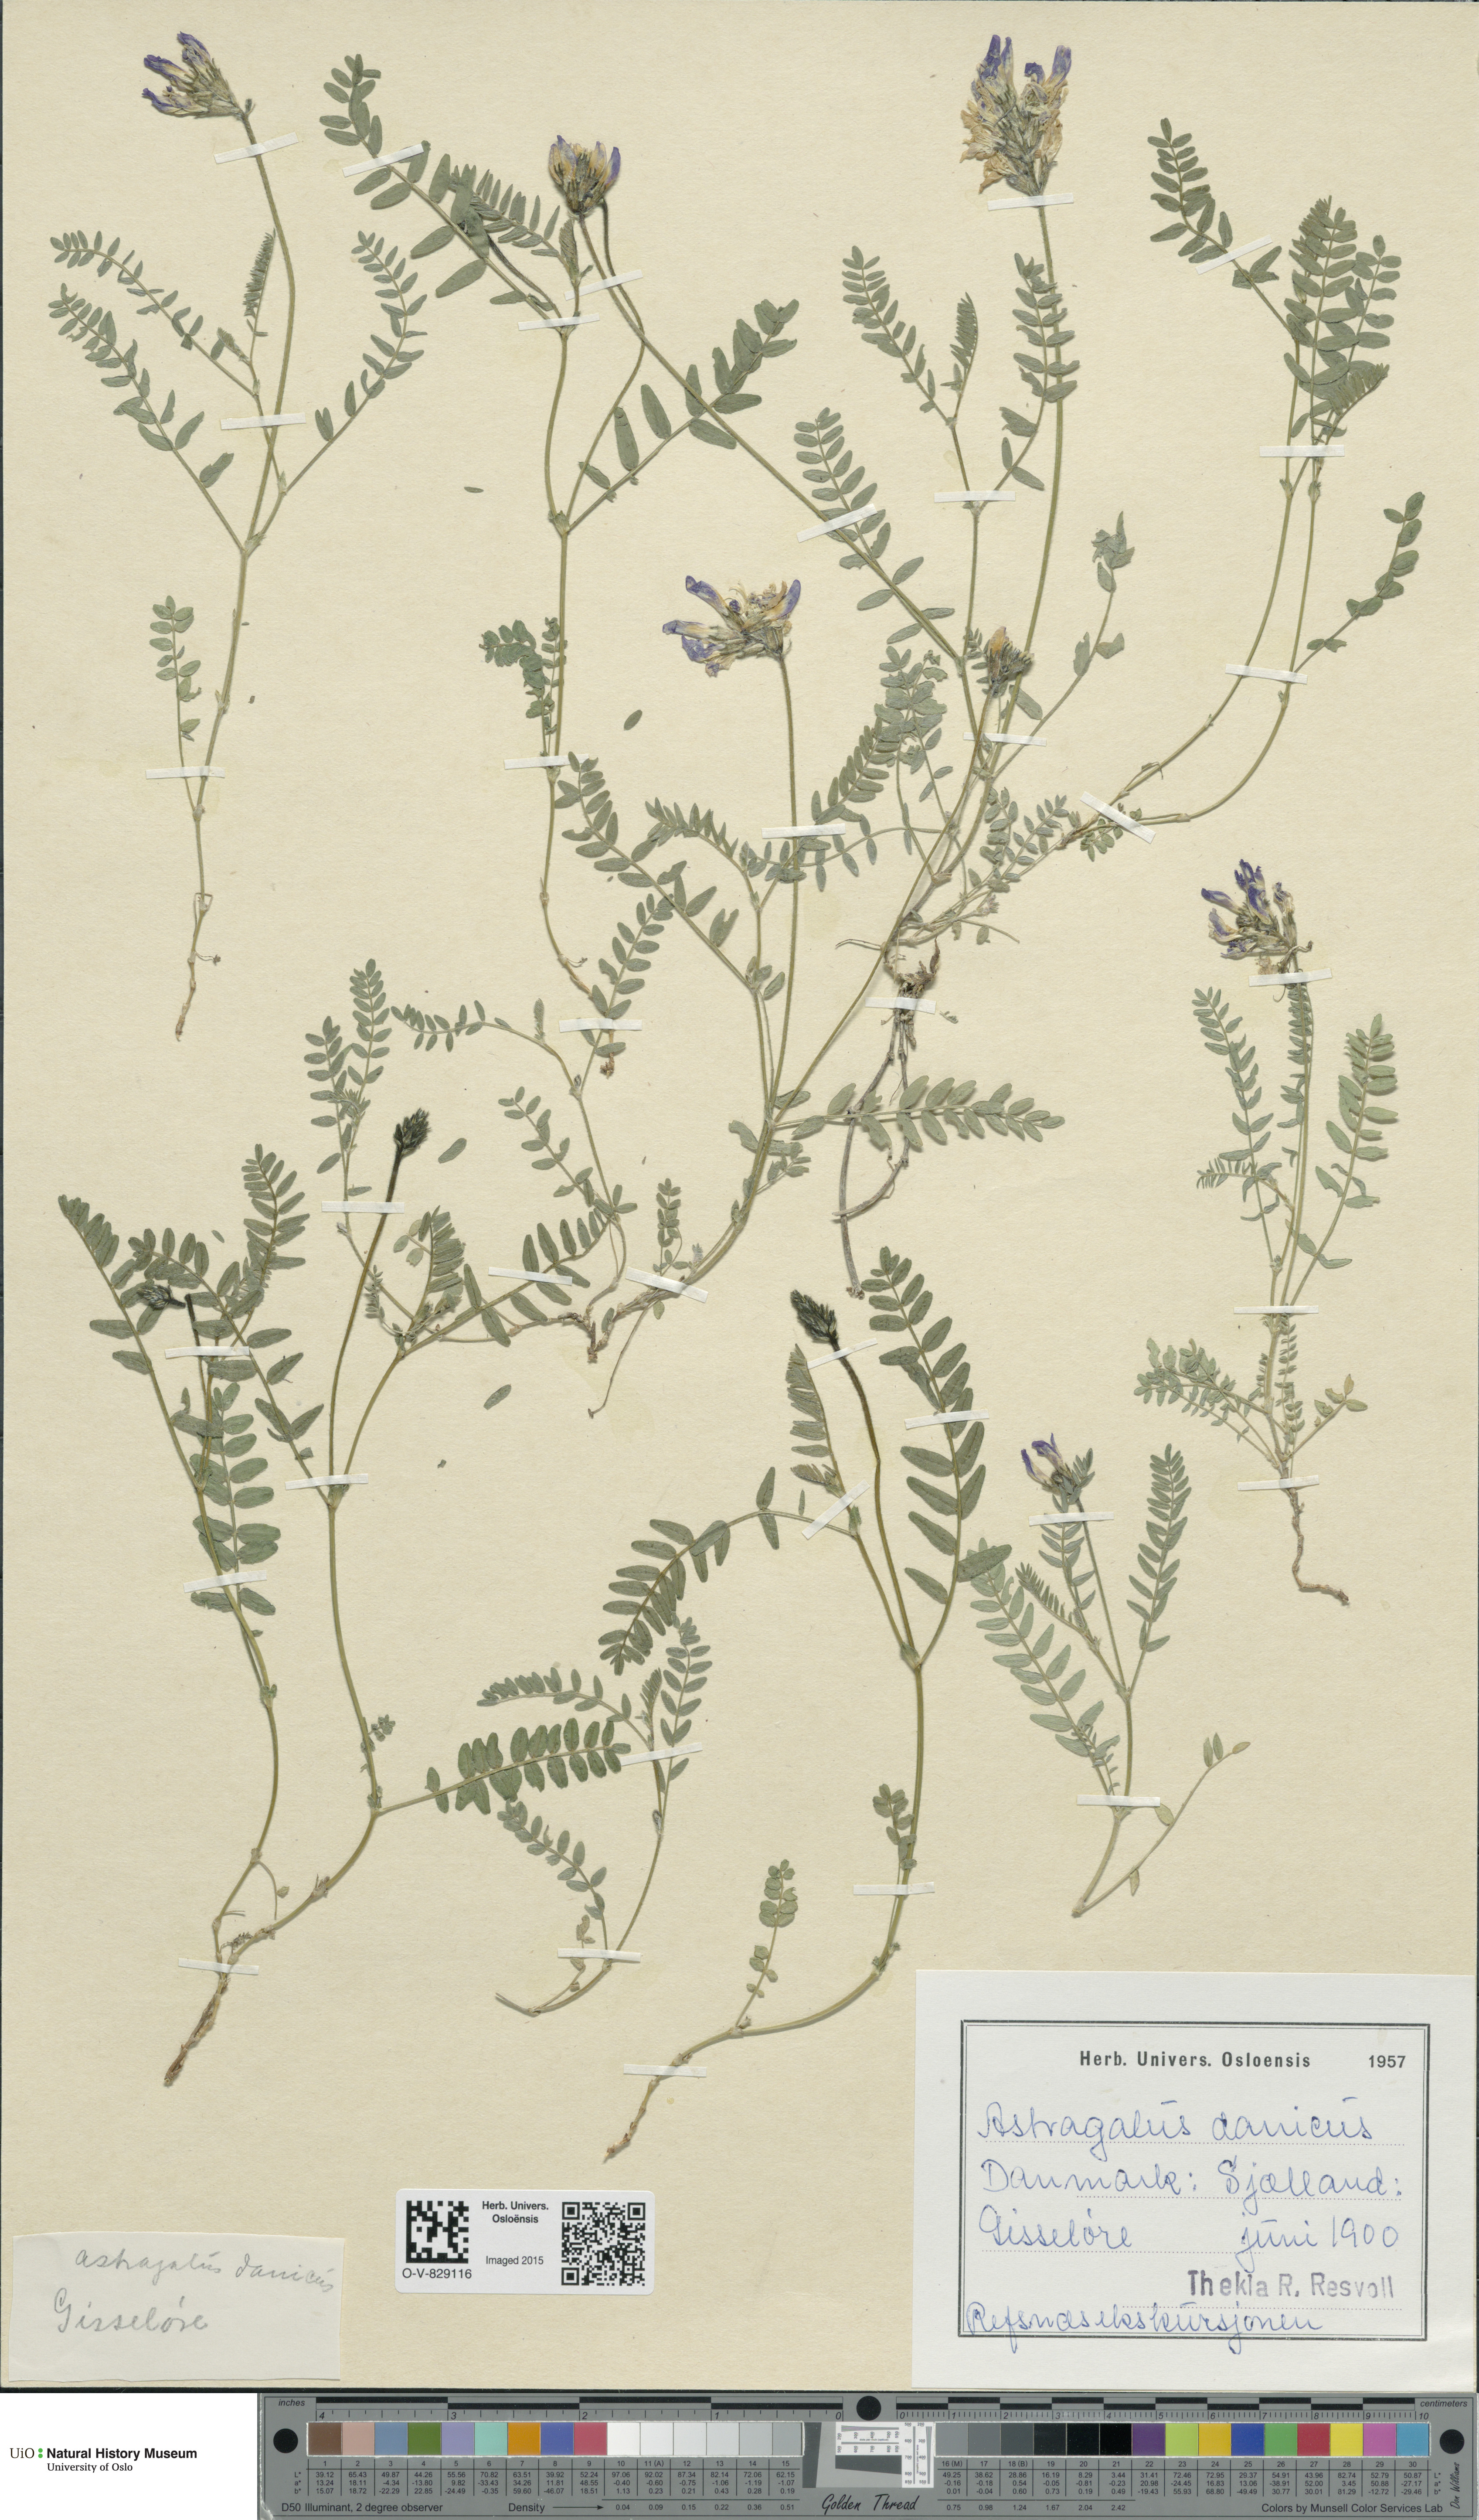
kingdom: Plantae
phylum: Tracheophyta
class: Magnoliopsida
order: Fabales
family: Fabaceae
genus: Astragalus
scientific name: Astragalus danicus
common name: Purple milk-vetch
